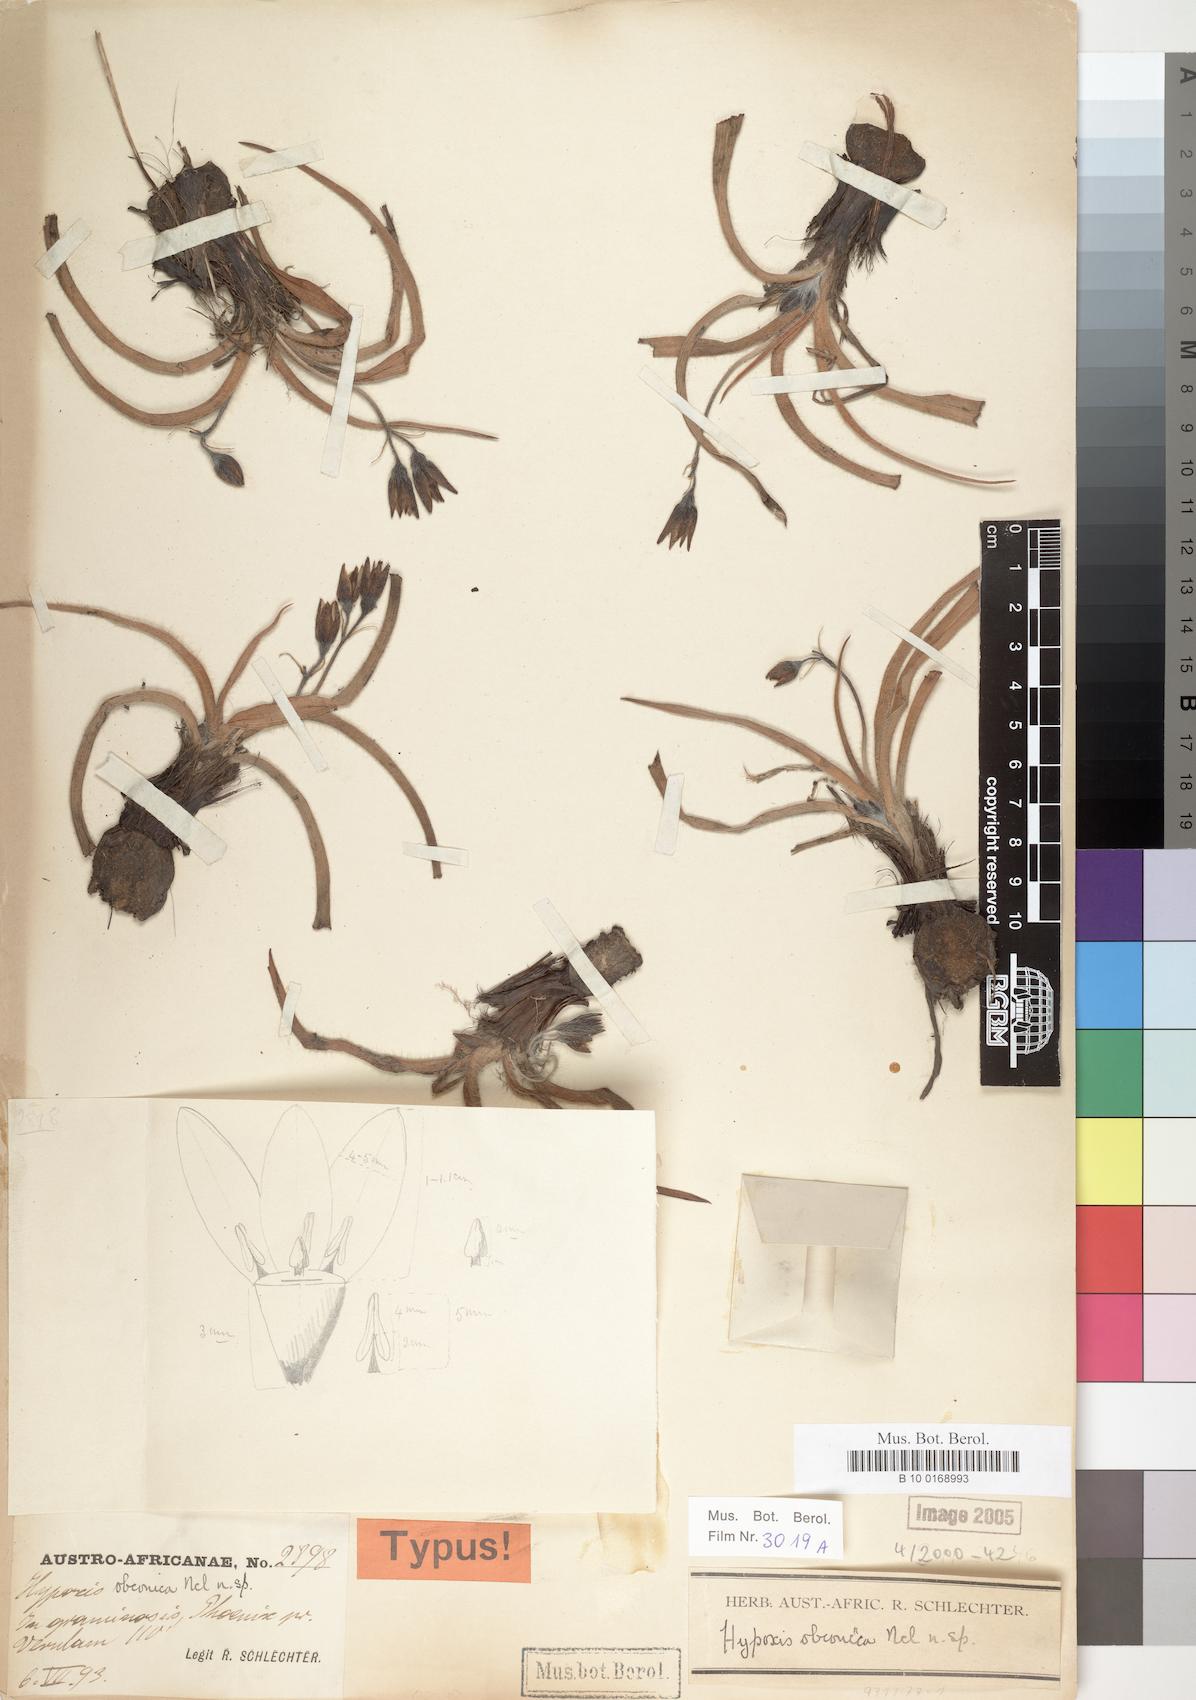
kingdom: Plantae
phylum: Tracheophyta
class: Liliopsida
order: Asparagales
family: Hypoxidaceae
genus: Hypoxis
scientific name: Hypoxis hemerocallidea
